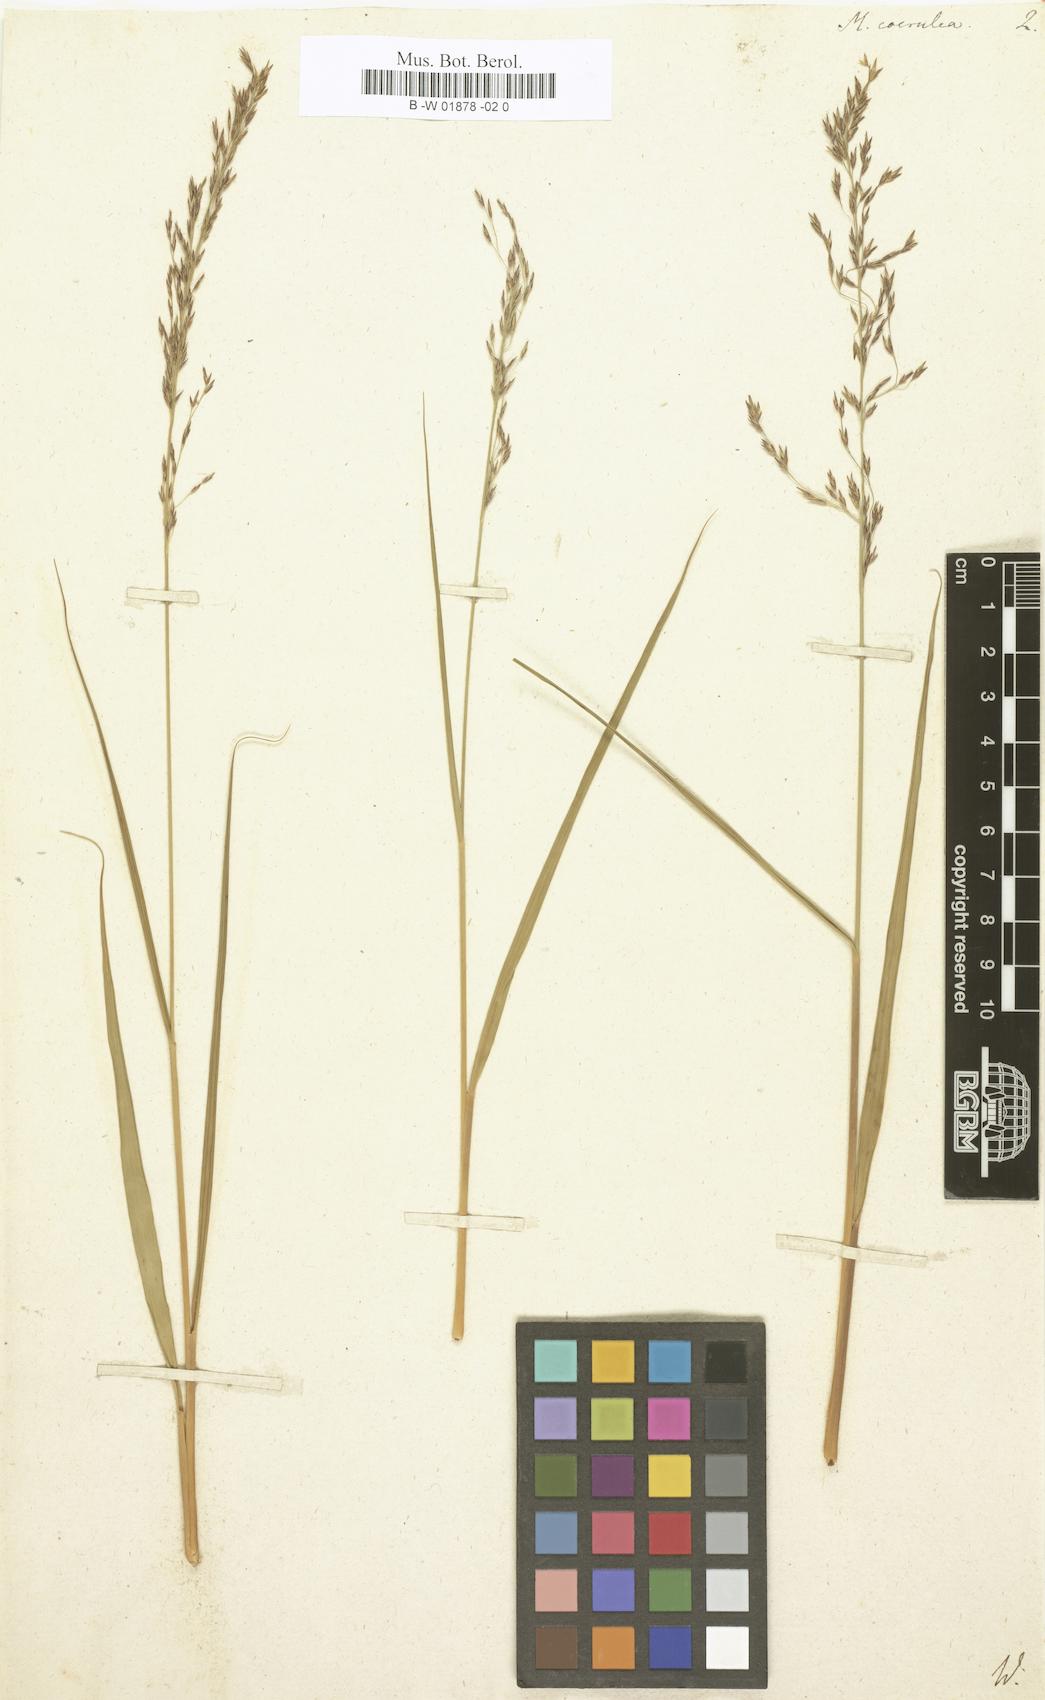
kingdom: Plantae
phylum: Tracheophyta
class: Liliopsida
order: Poales
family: Poaceae
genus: Molinia
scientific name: Molinia caerulea
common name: Purple moor-grass
